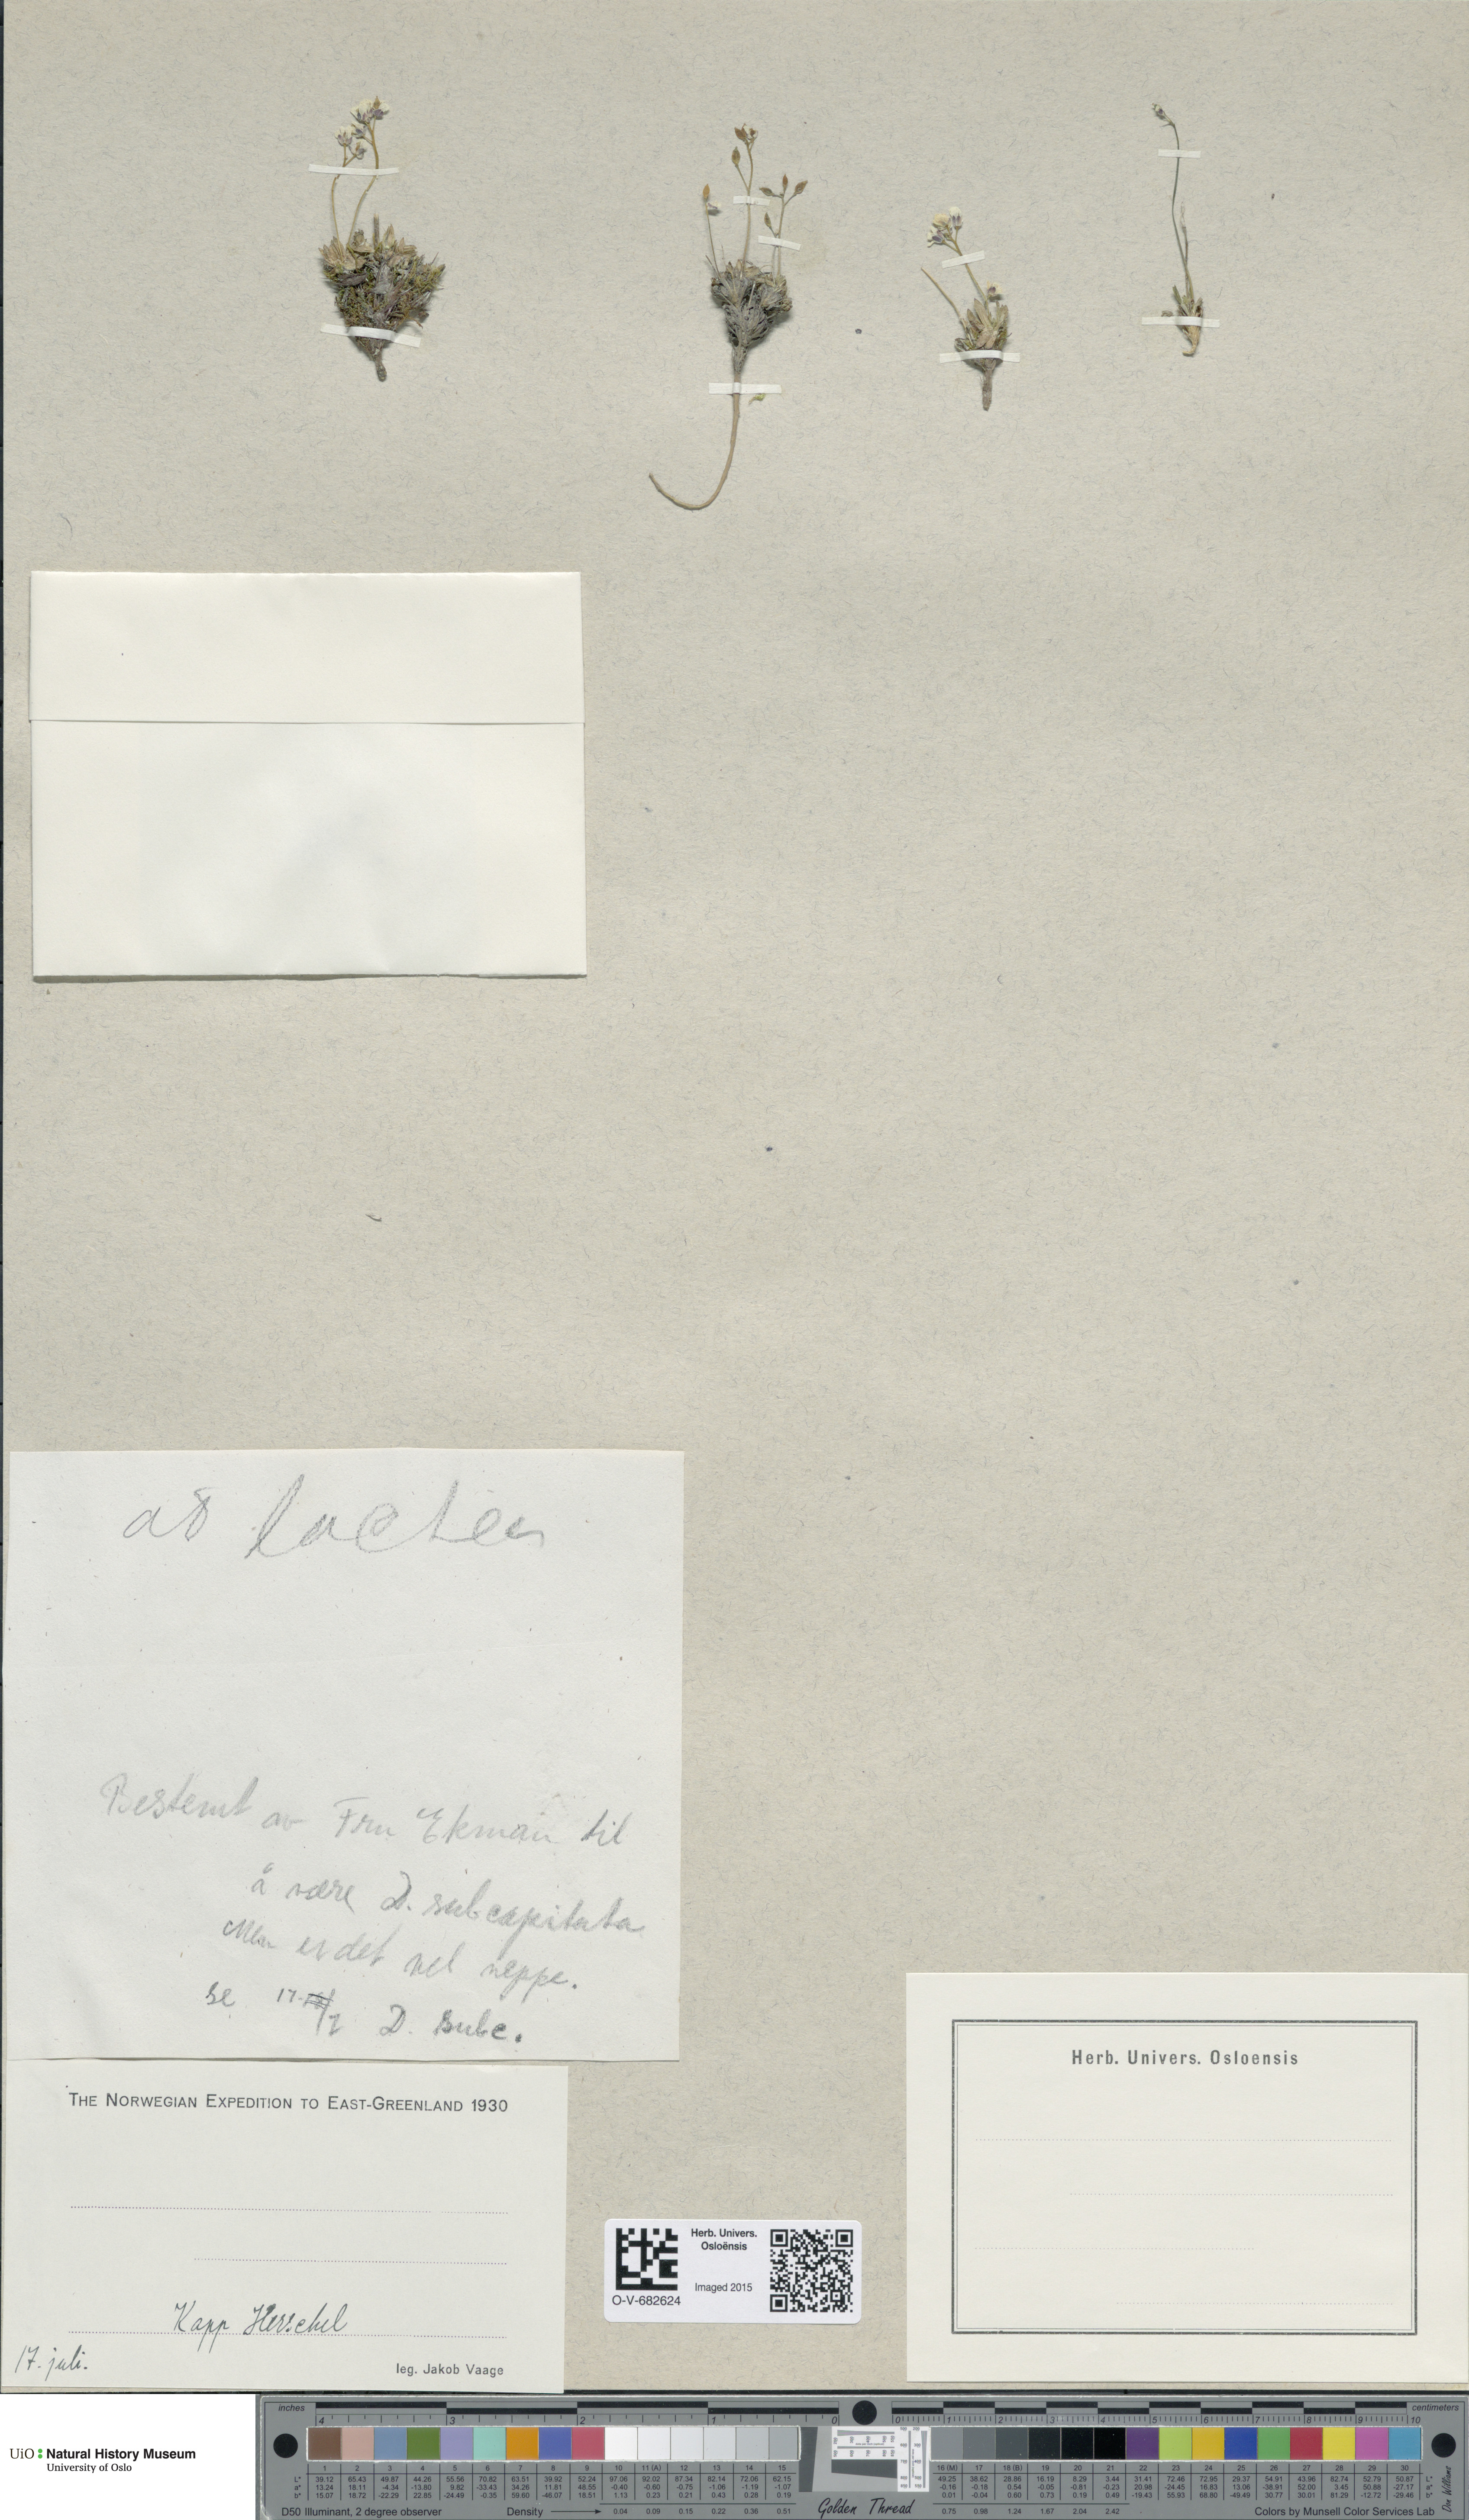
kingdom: Plantae
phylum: Tracheophyta
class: Magnoliopsida
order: Brassicales
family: Brassicaceae
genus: Draba
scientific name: Draba lactea
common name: Milky draba
